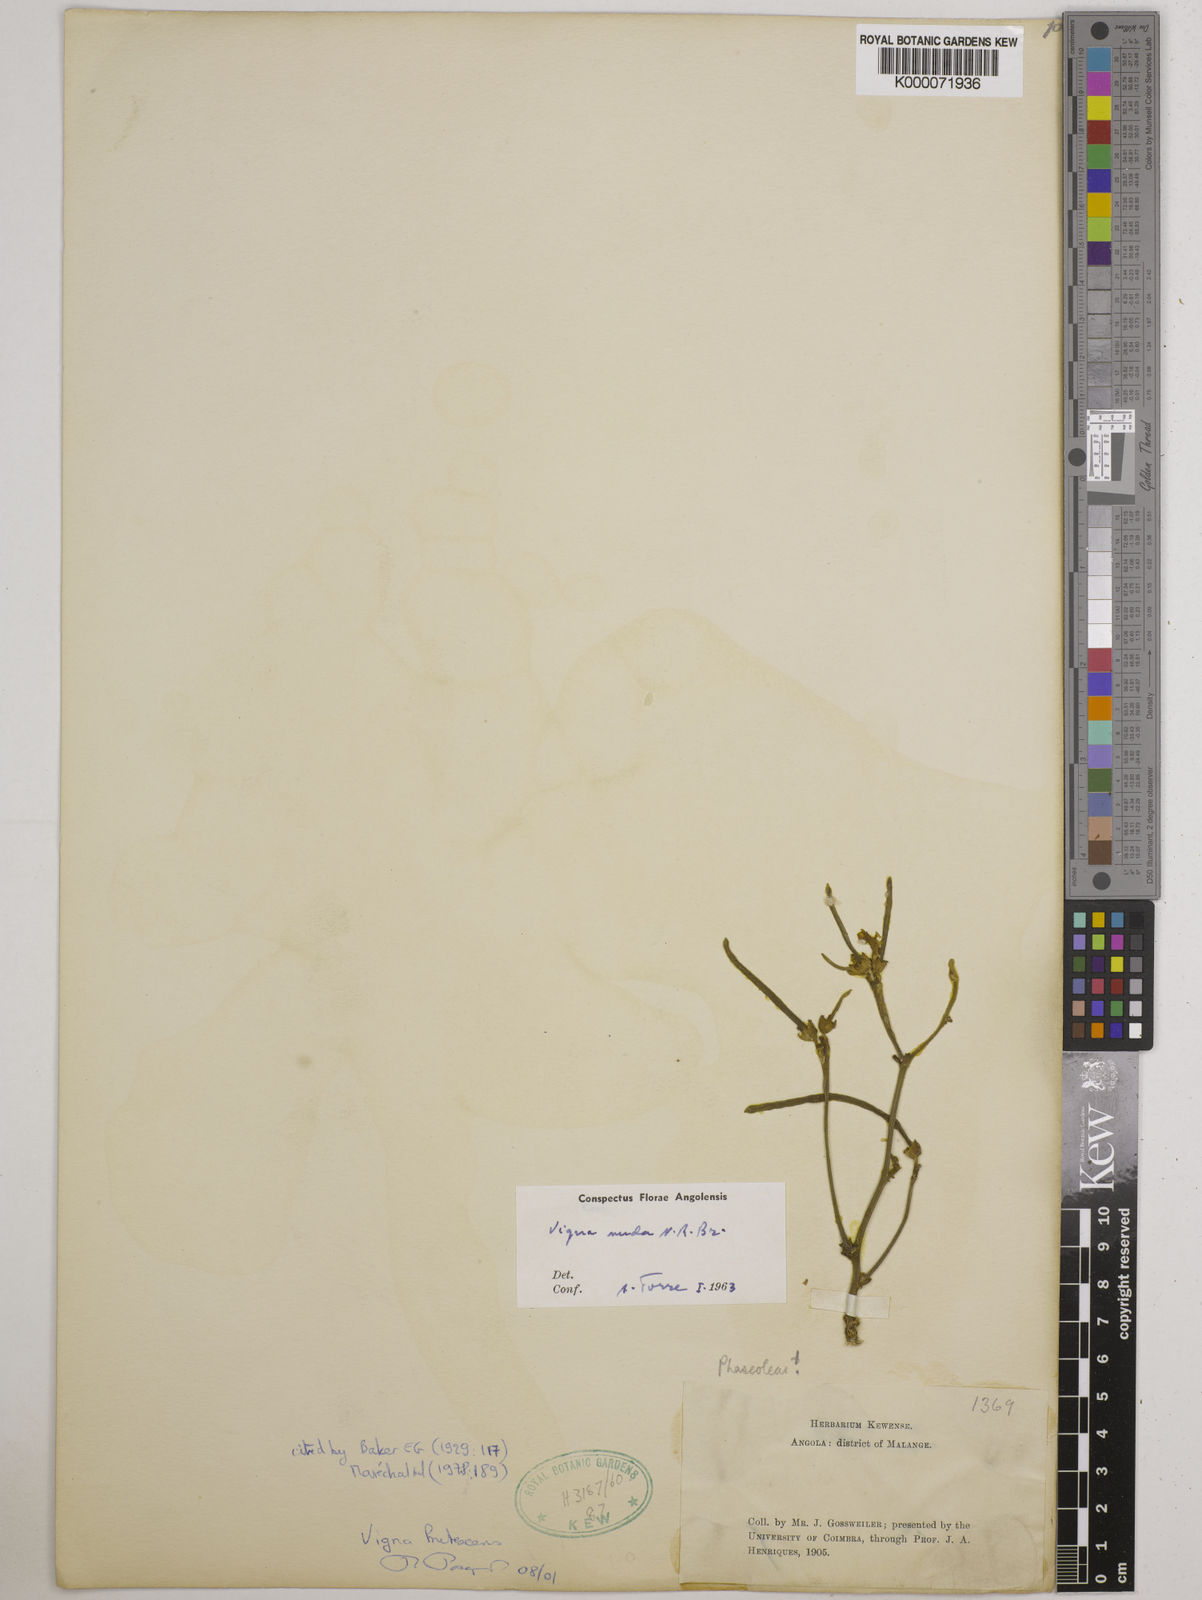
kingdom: Plantae
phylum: Tracheophyta
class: Magnoliopsida
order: Fabales
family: Fabaceae
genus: Vigna
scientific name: Vigna antunesii
